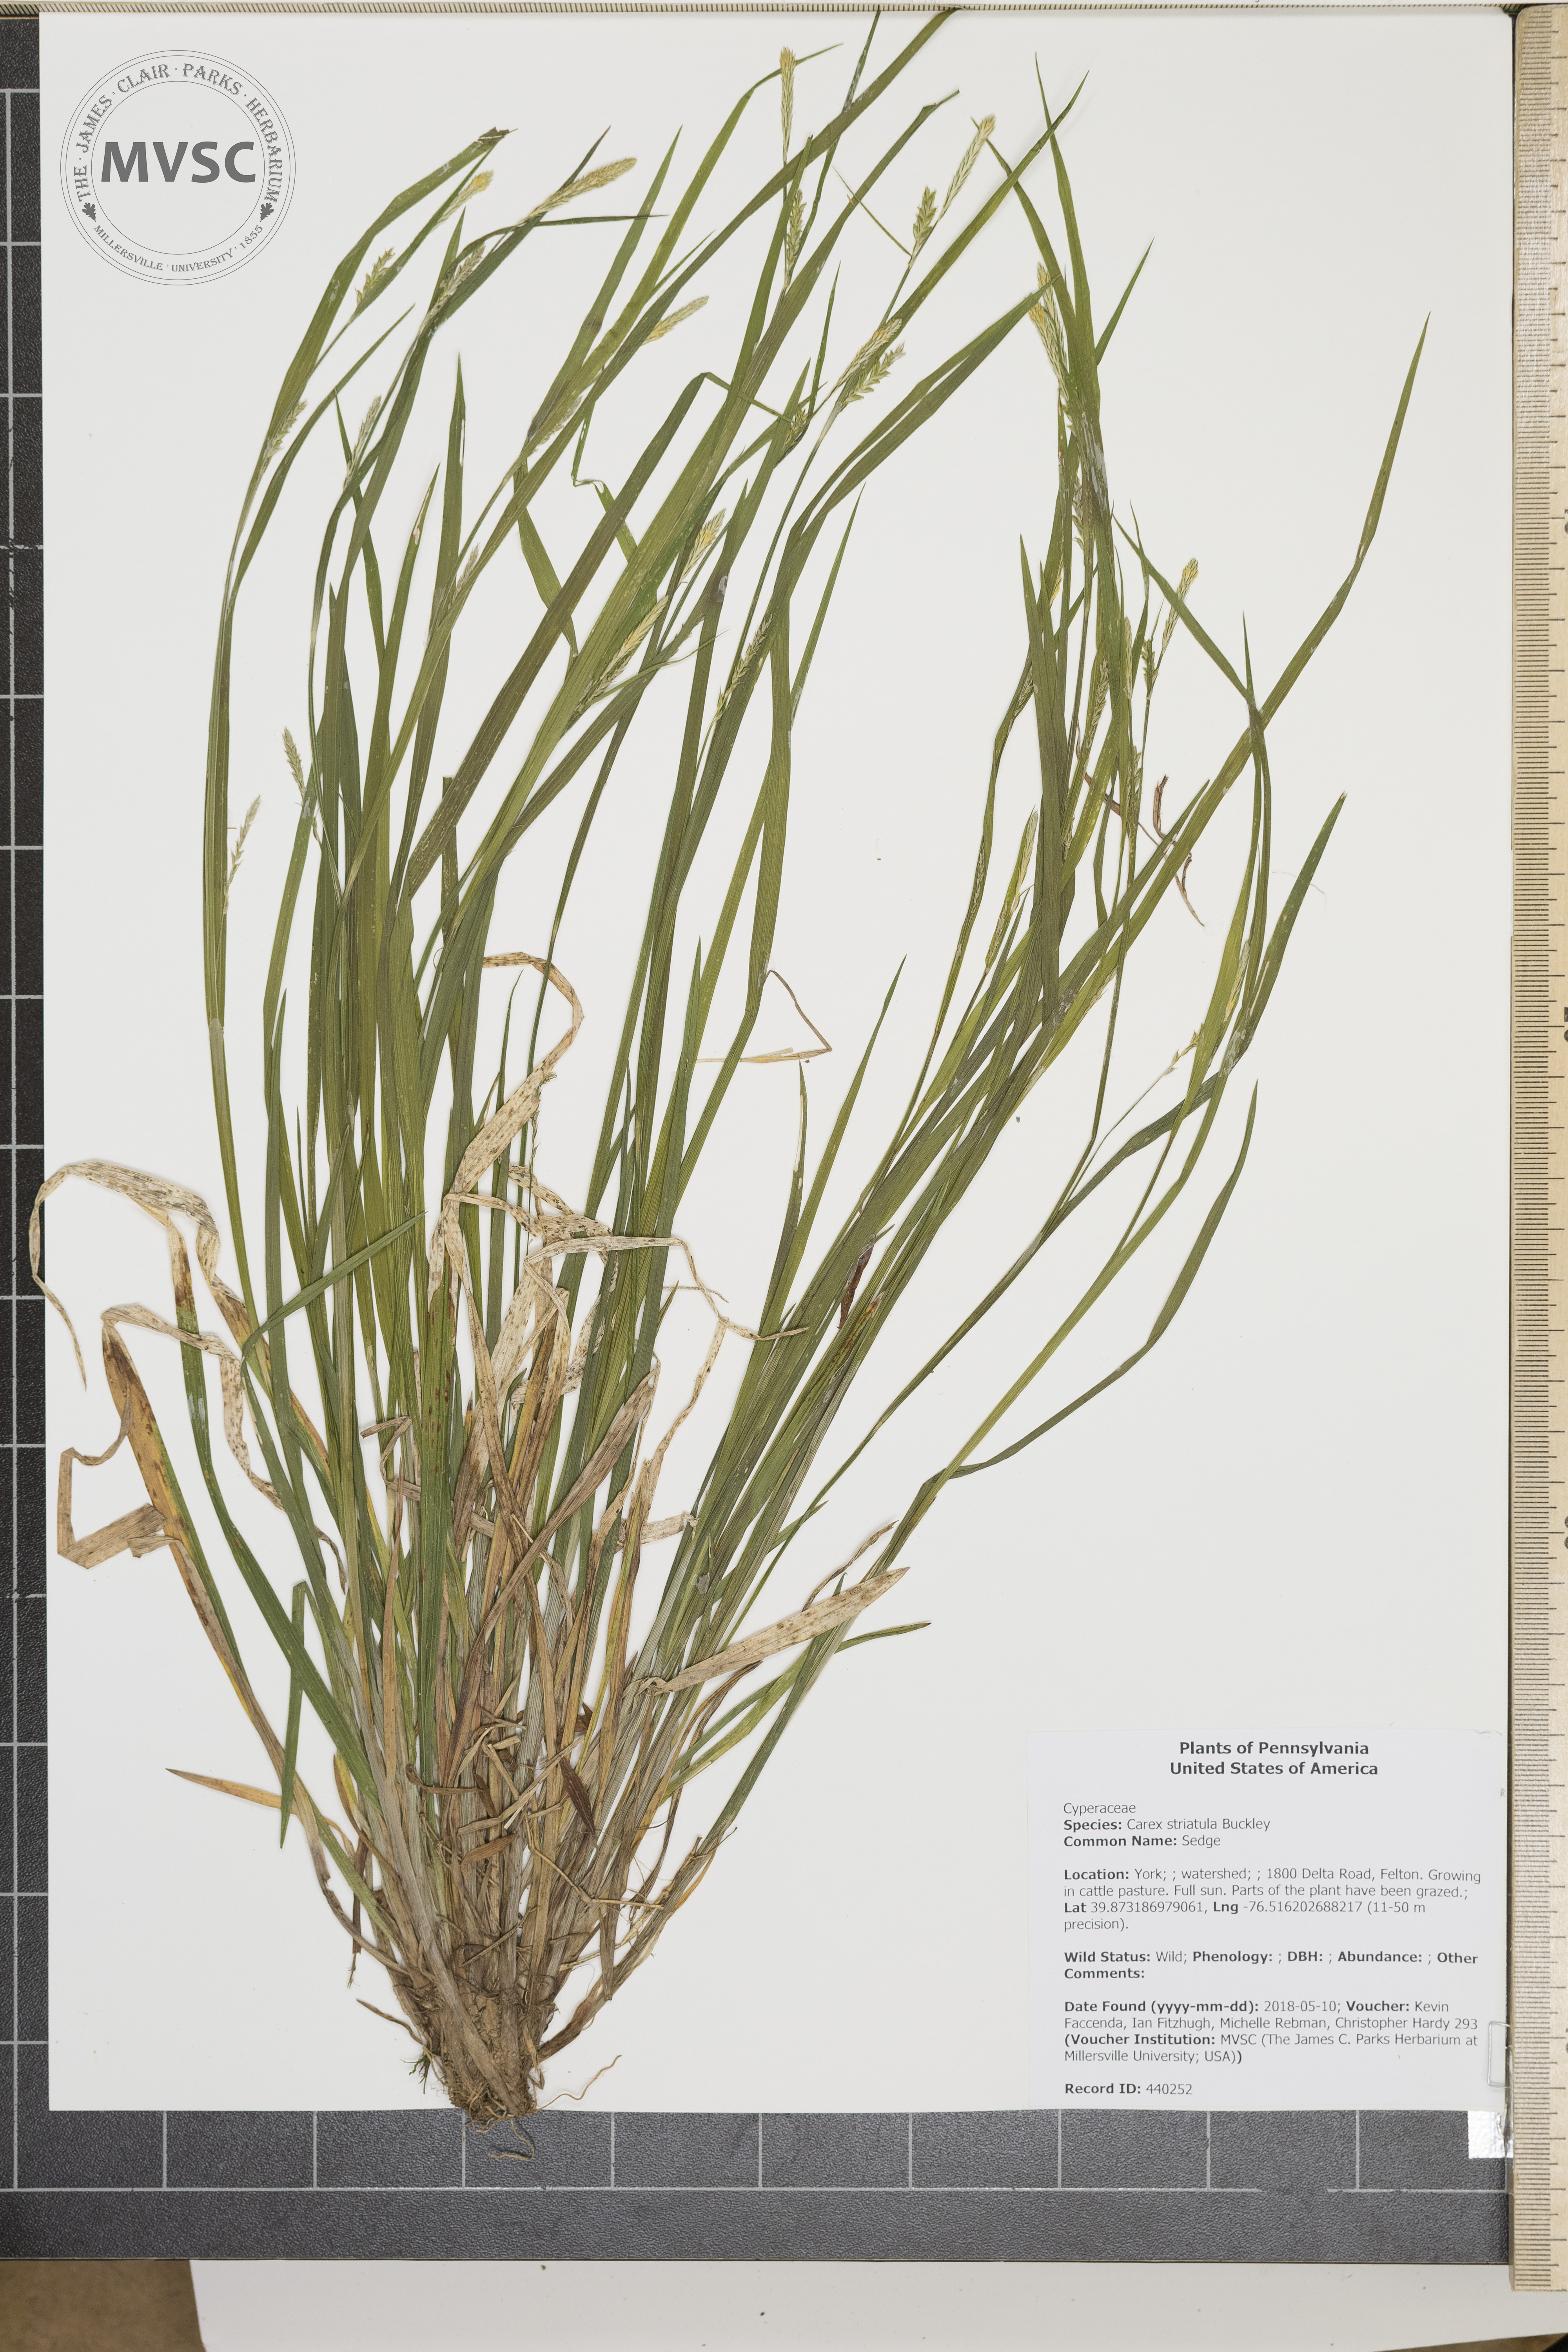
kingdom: Plantae
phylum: Tracheophyta
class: Liliopsida
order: Poales
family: Cyperaceae
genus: Carex
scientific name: Carex striatula
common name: Sedge
